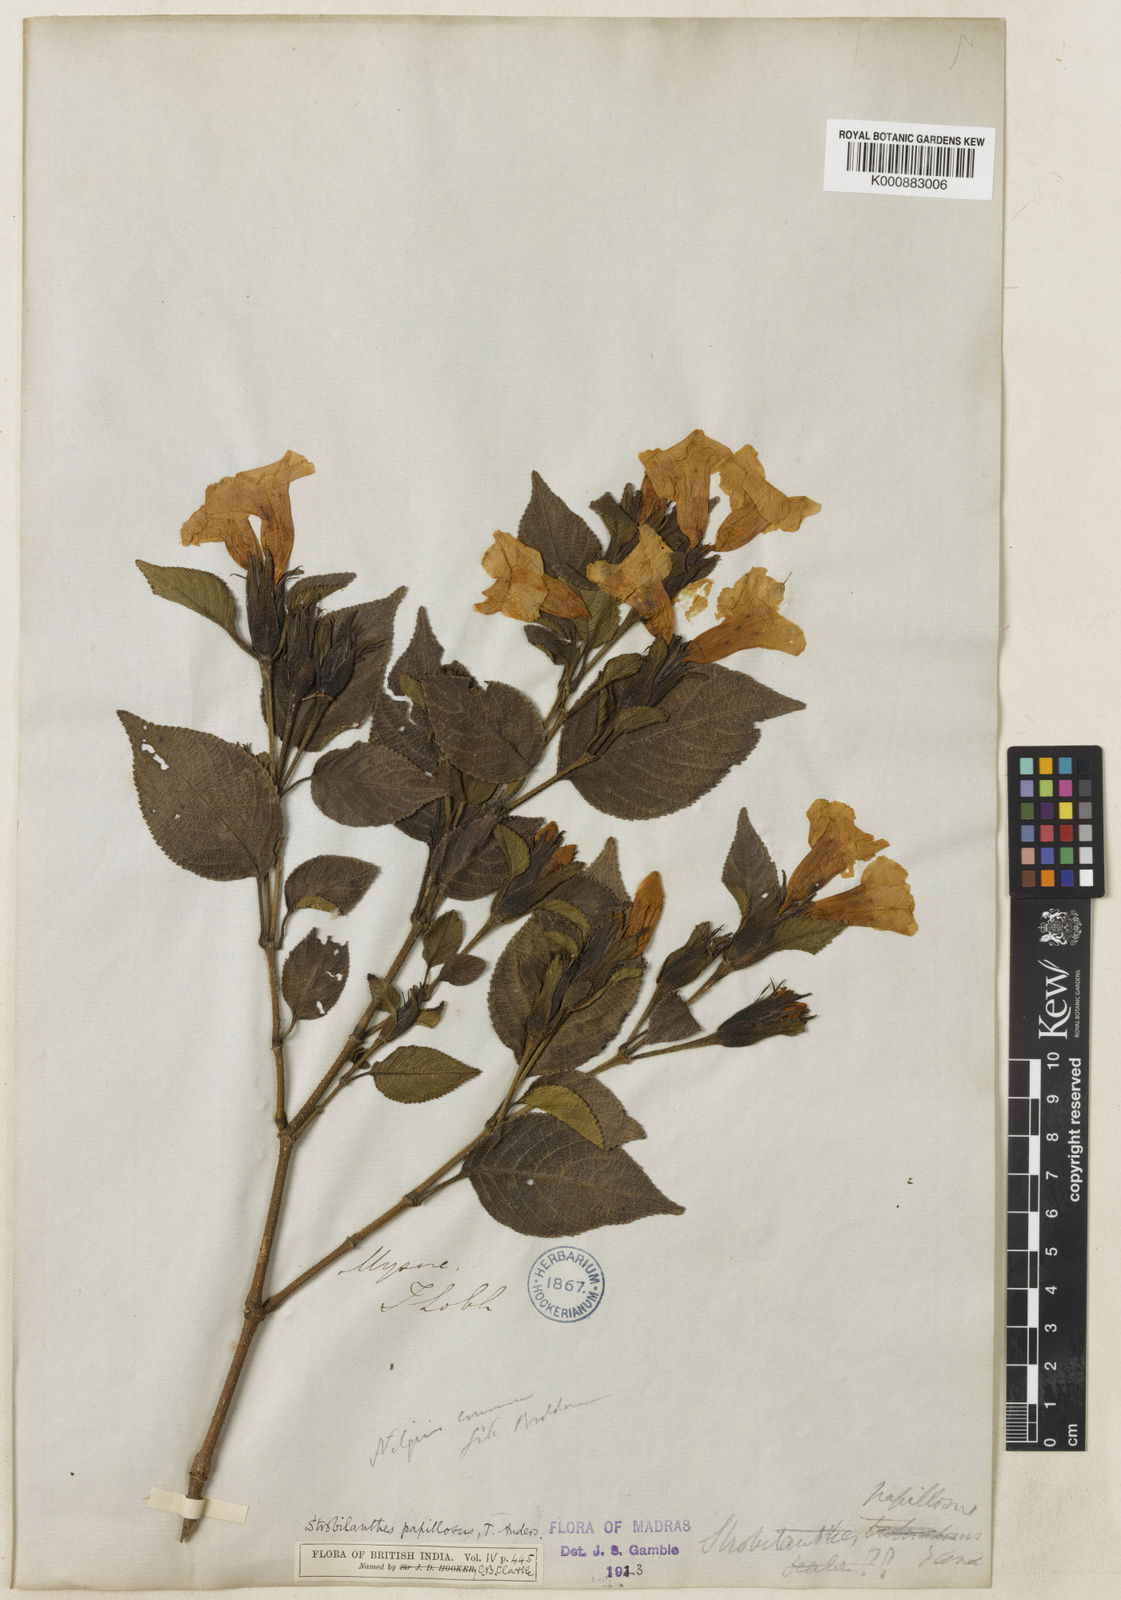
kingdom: Plantae
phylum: Tracheophyta
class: Magnoliopsida
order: Lamiales
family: Acanthaceae
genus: Strobilanthes
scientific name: Strobilanthes papillosa
